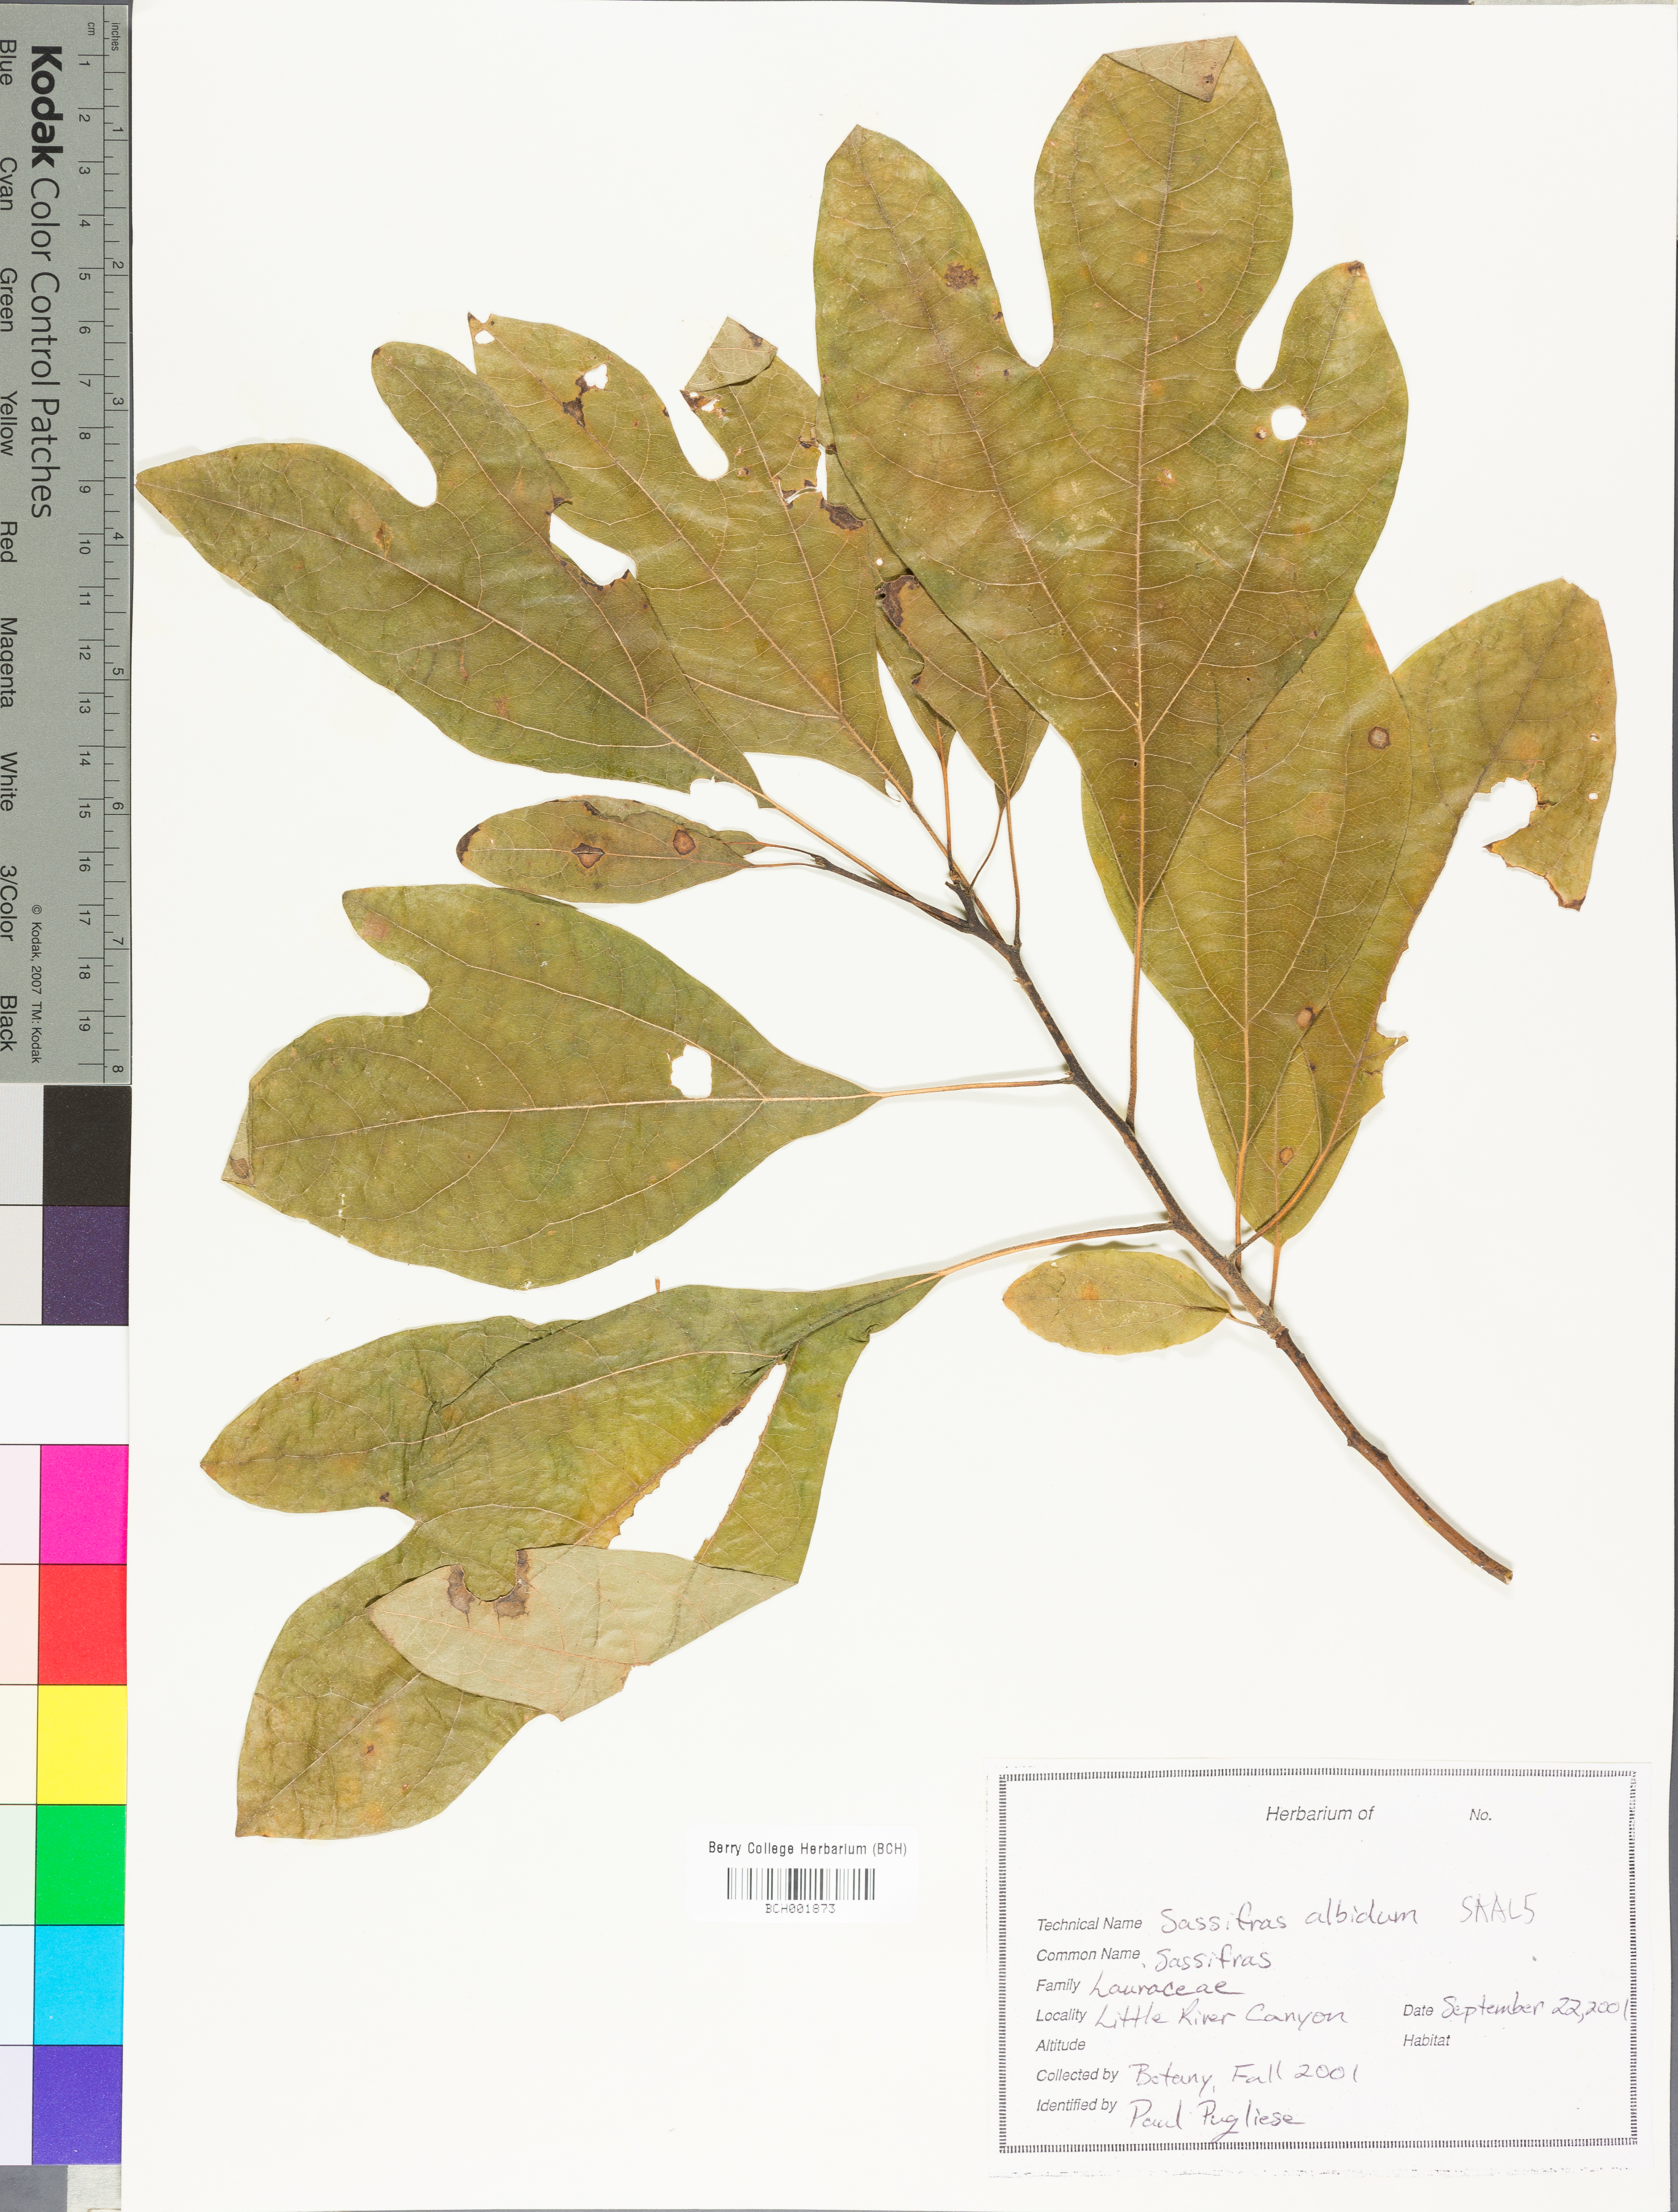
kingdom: Plantae
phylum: Tracheophyta
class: Magnoliopsida
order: Laurales
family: Lauraceae
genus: Sassafras
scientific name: Sassafras albidum
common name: Sassafras
